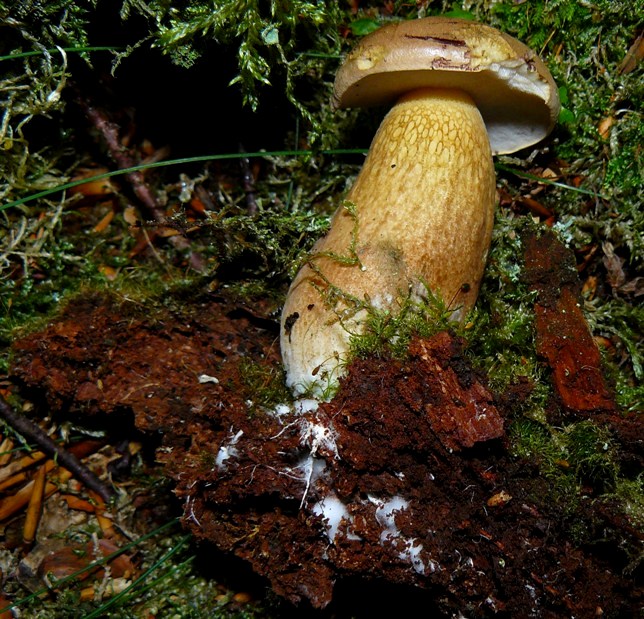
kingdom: Fungi
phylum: Basidiomycota
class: Agaricomycetes
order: Boletales
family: Boletaceae
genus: Tylopilus
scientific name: Tylopilus felleus
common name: galderørhat
